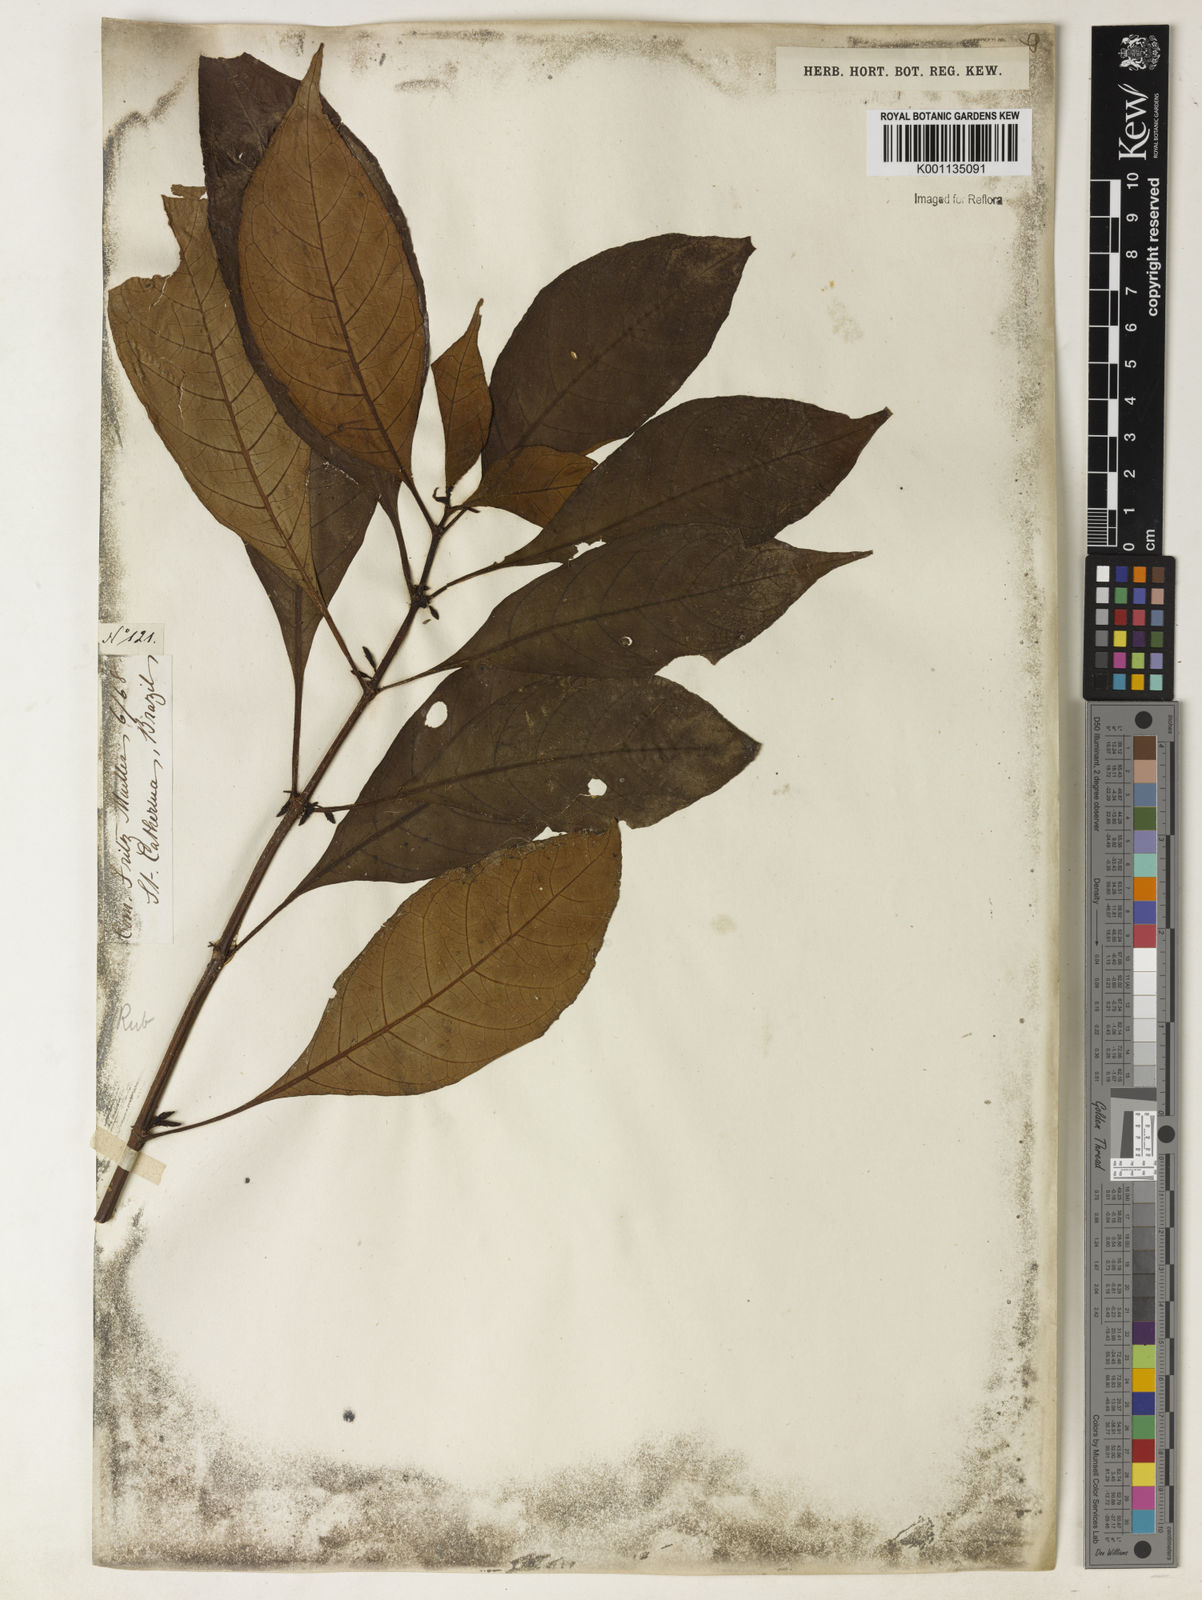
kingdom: Plantae
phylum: Tracheophyta
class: Magnoliopsida
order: Gentianales
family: Rubiaceae
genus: Hoffmannia
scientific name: Hoffmannia peckii
